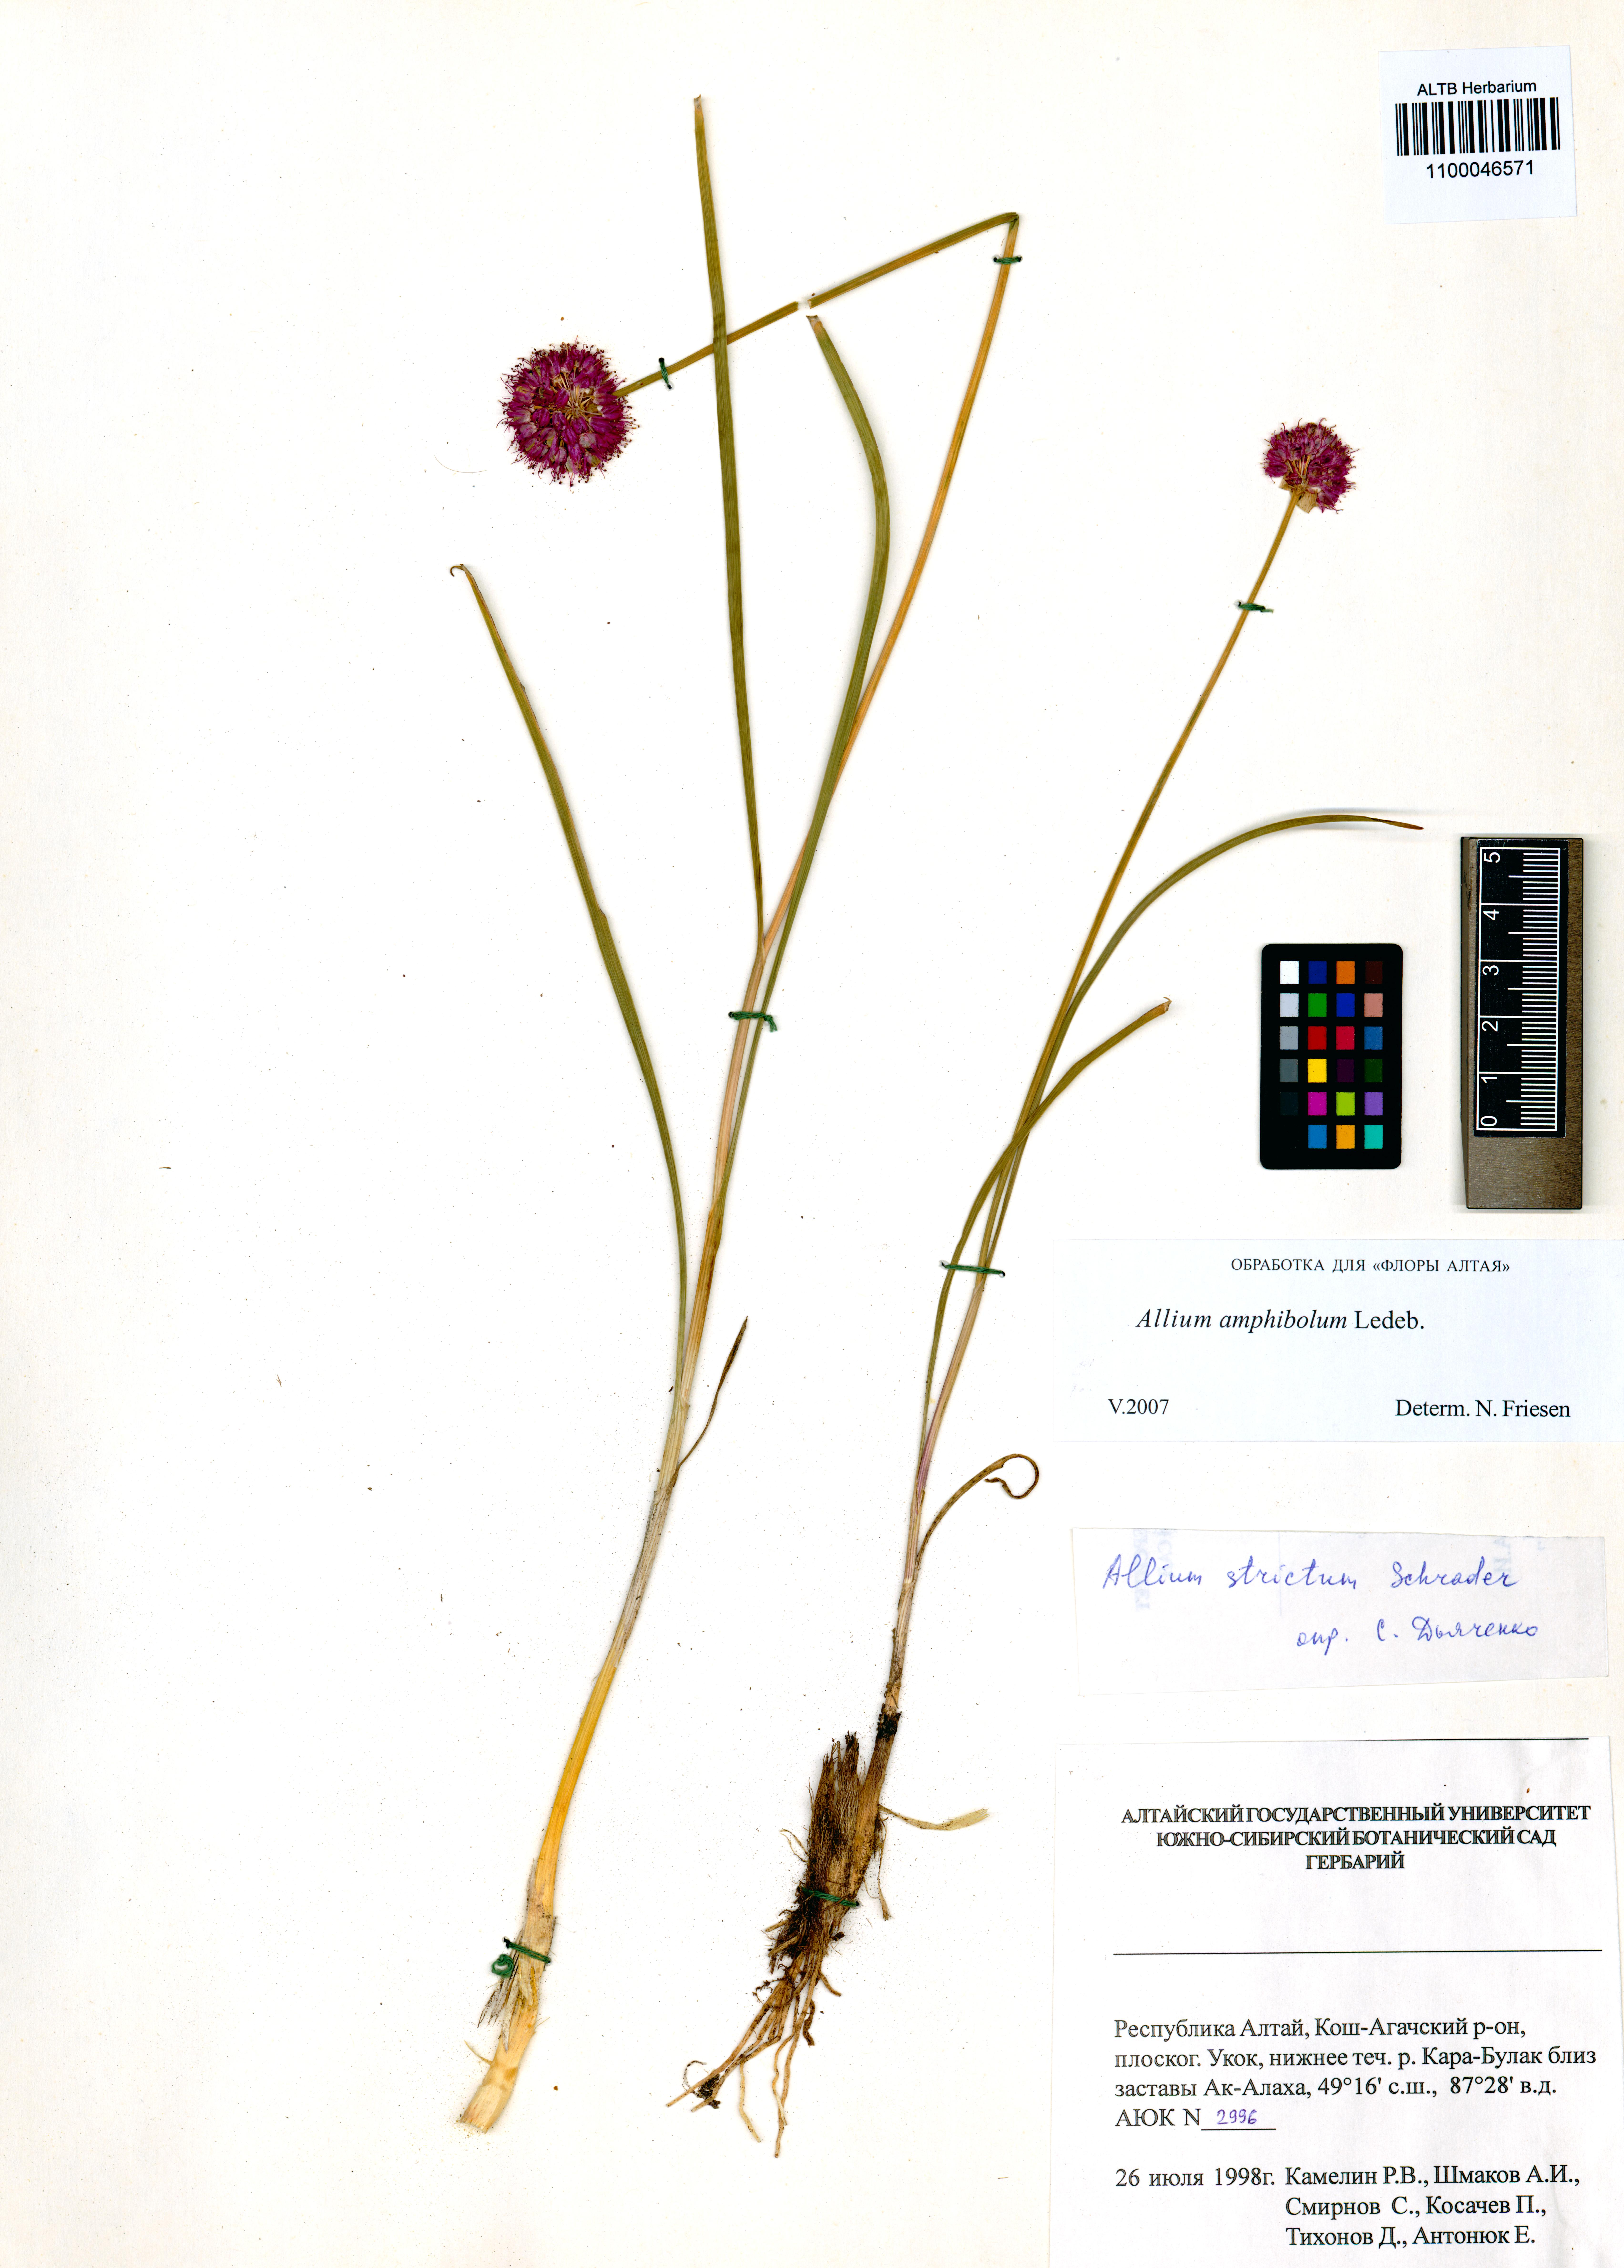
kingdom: Plantae
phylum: Tracheophyta
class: Liliopsida
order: Asparagales
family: Amaryllidaceae
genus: Allium
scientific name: Allium amphibolum
